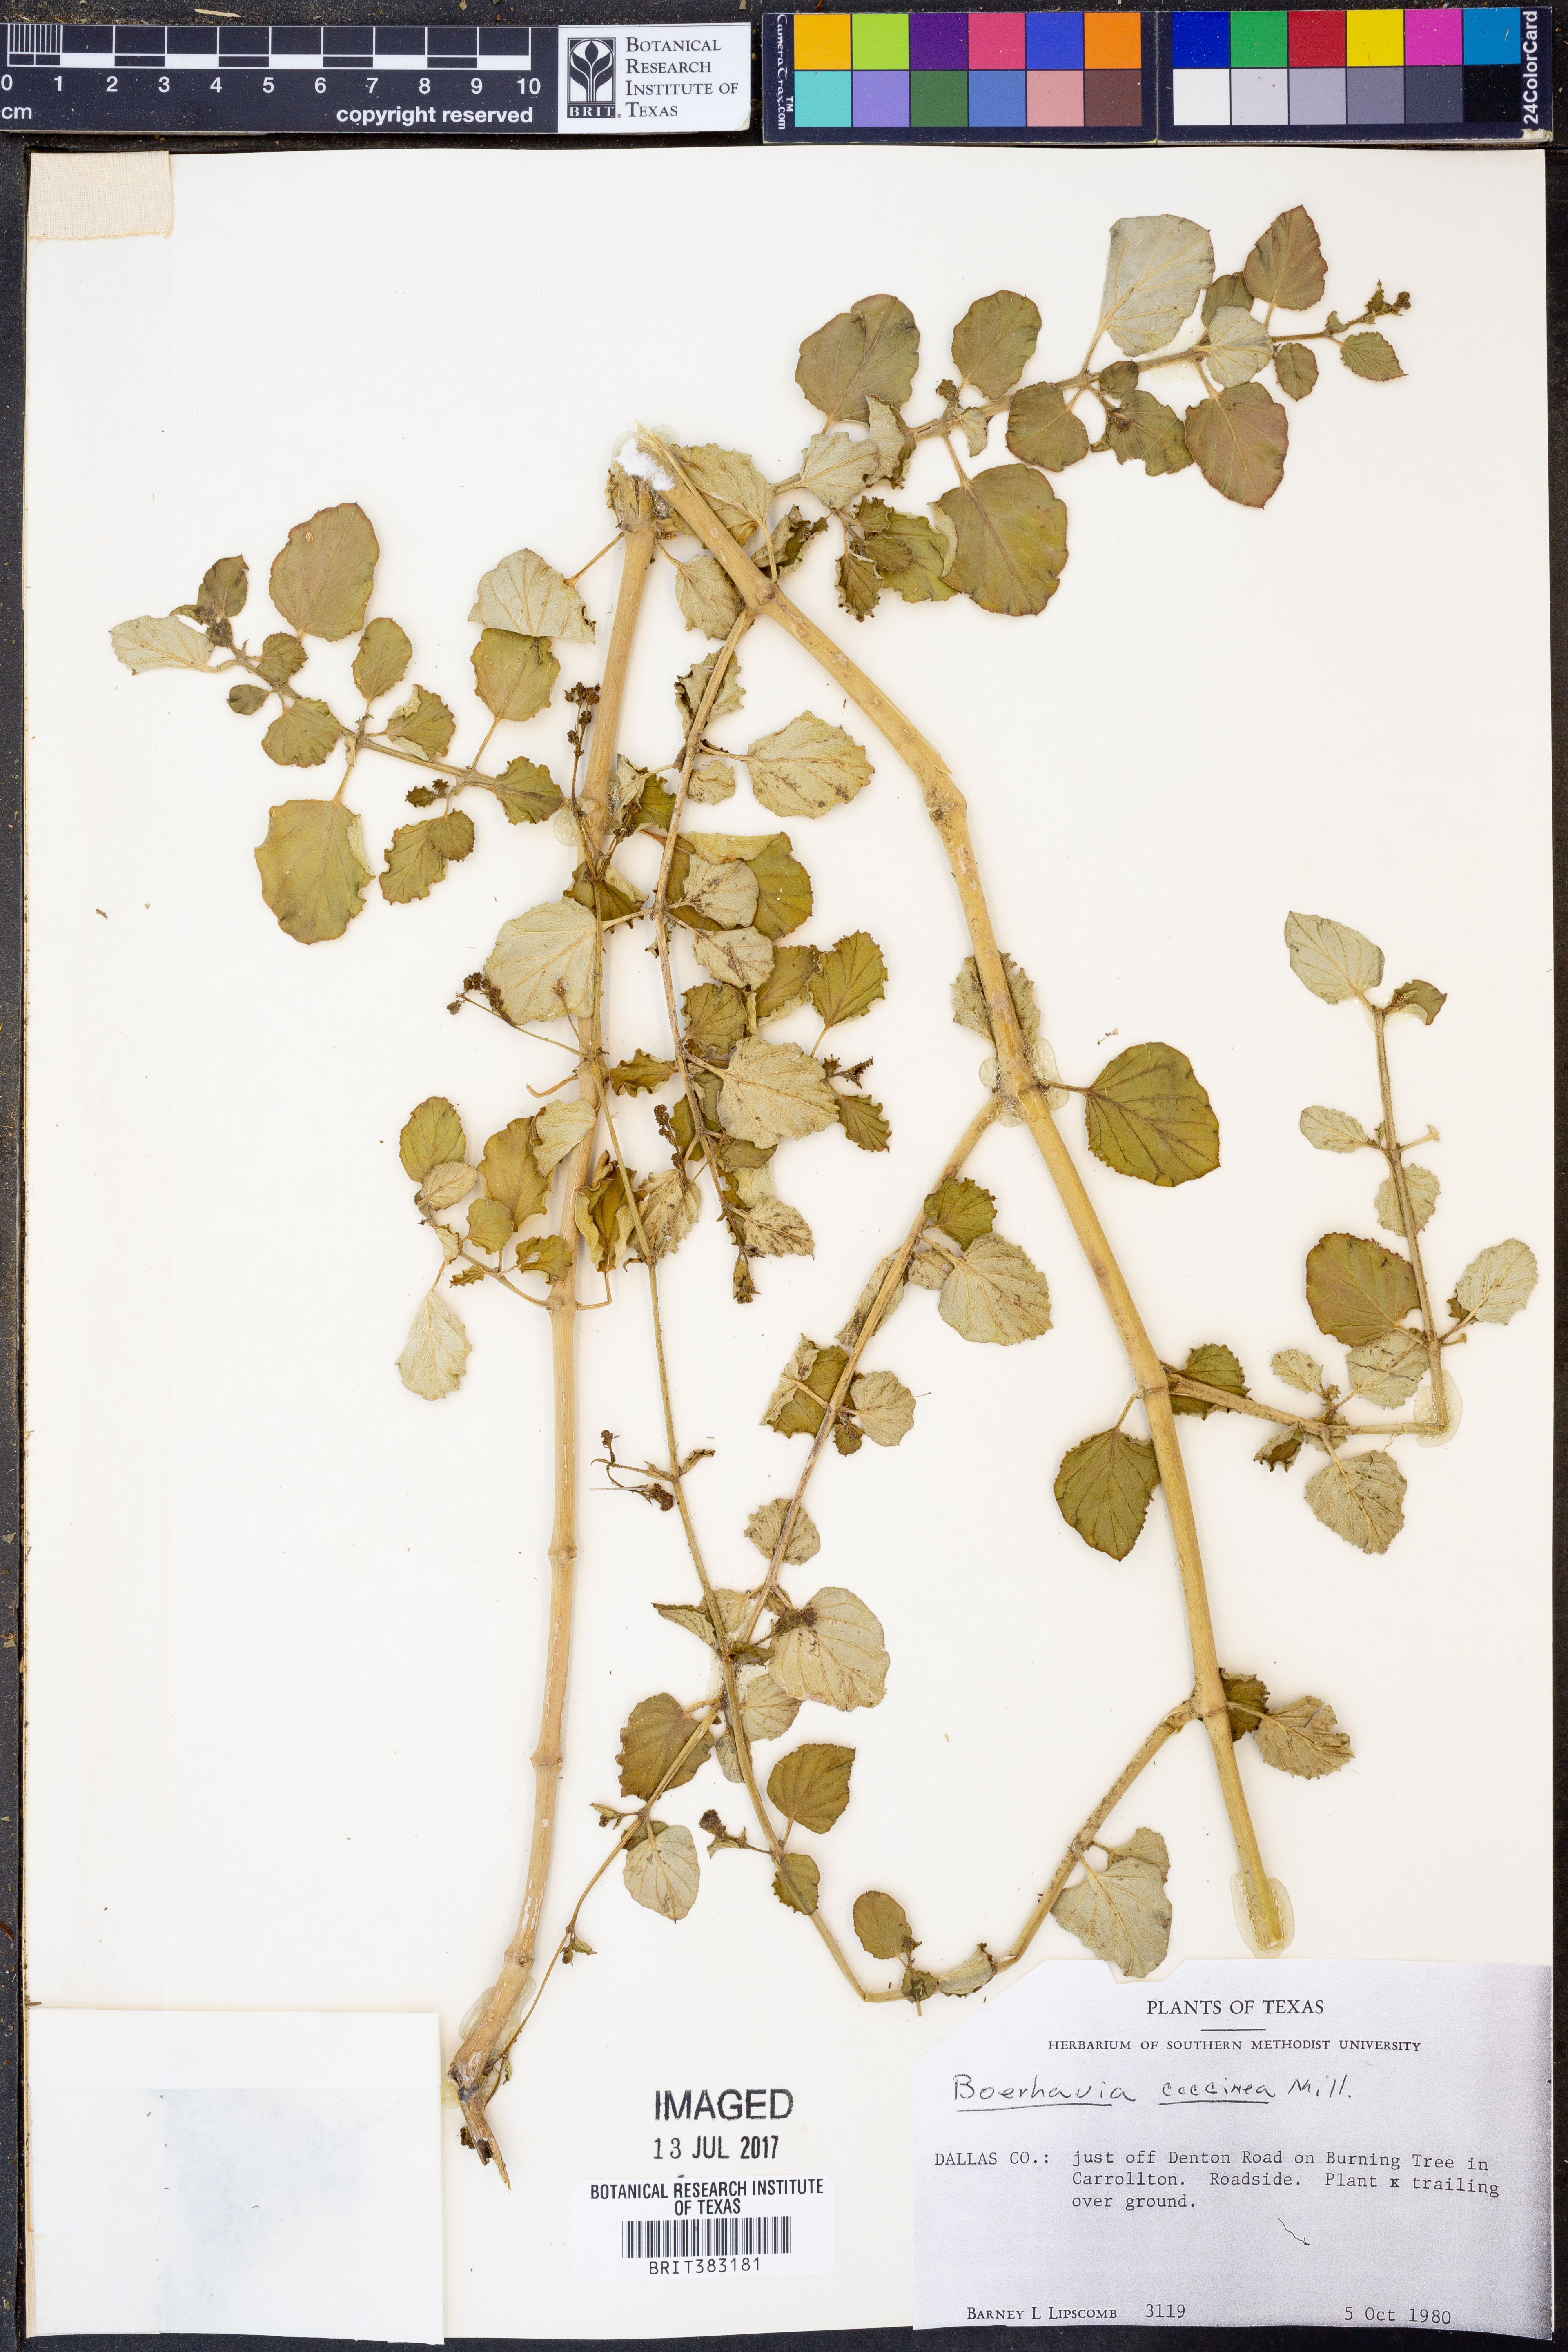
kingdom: Plantae
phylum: Tracheophyta
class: Magnoliopsida
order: Caryophyllales
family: Nyctaginaceae
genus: Boerhavia
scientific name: Boerhavia coccinea
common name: Scarlet spiderling
